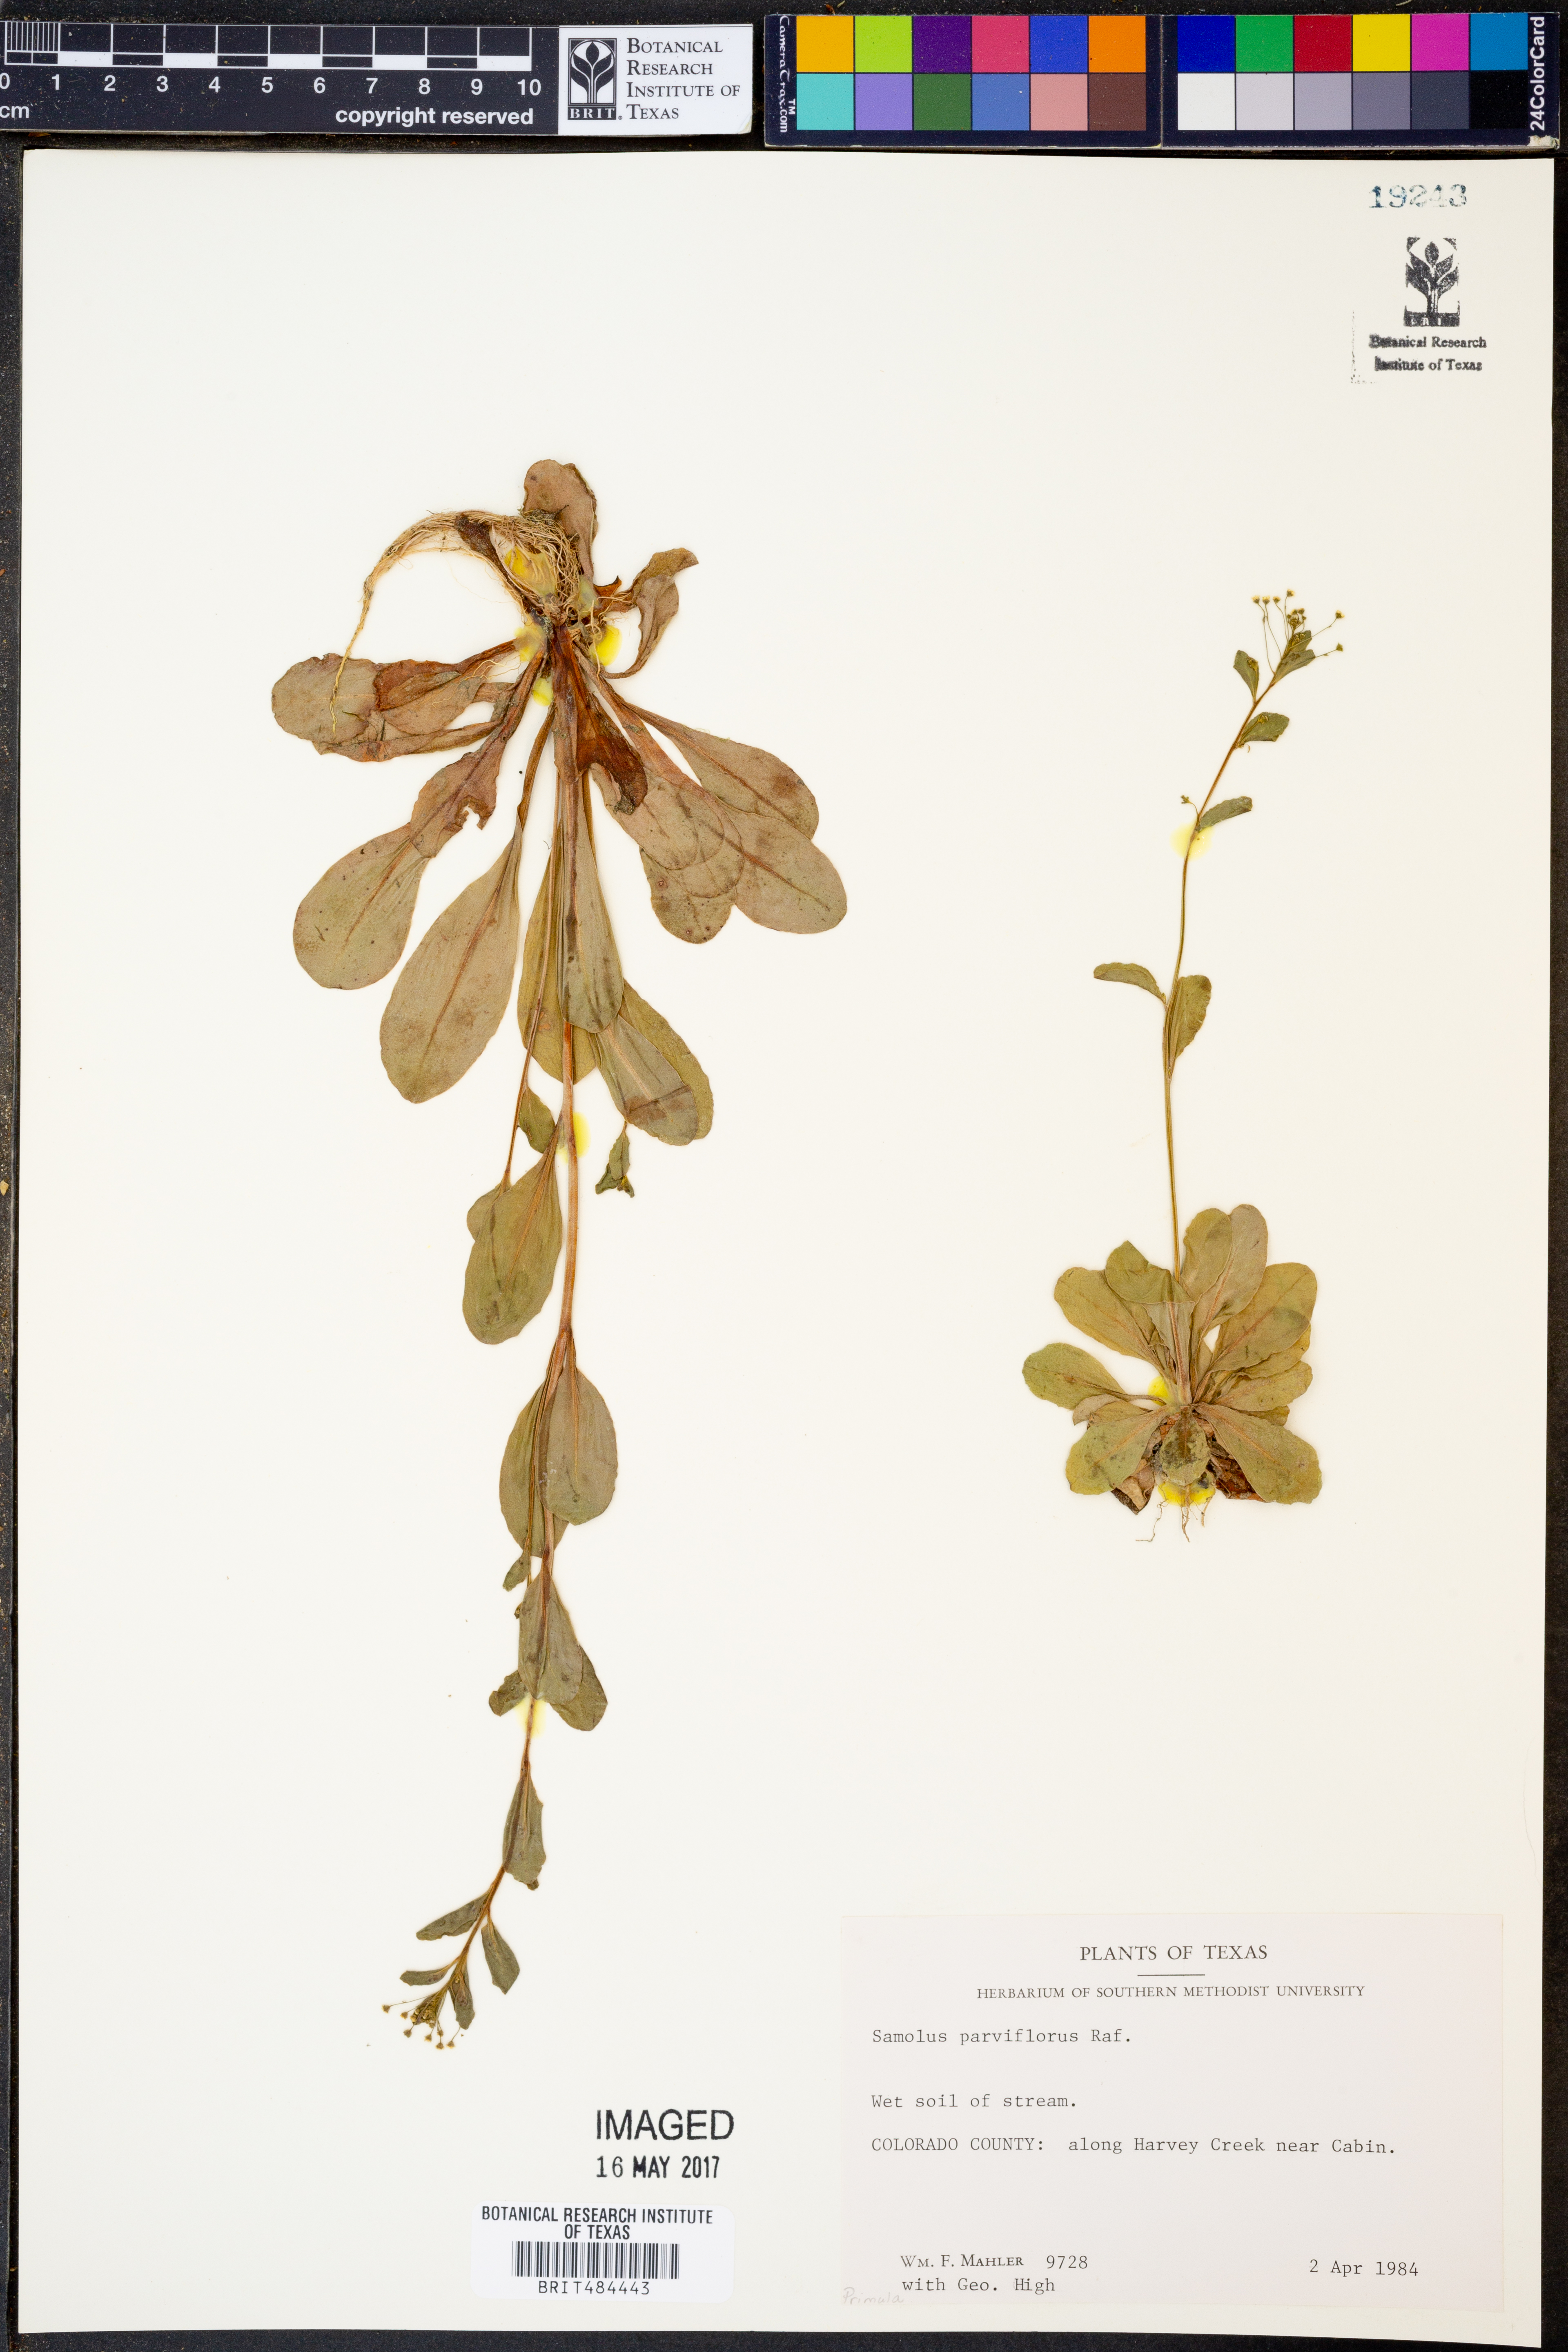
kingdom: Plantae
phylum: Tracheophyta
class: Magnoliopsida
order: Ericales
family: Primulaceae
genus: Samolus
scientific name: Samolus parviflorus
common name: False water pimpernel
